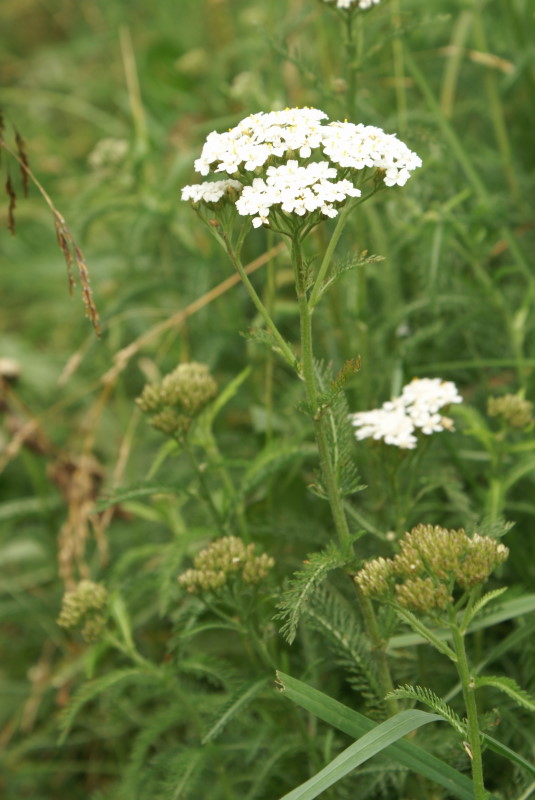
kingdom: Plantae
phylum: Tracheophyta
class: Magnoliopsida
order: Asterales
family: Asteraceae
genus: Achillea
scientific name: Achillea millefolium
